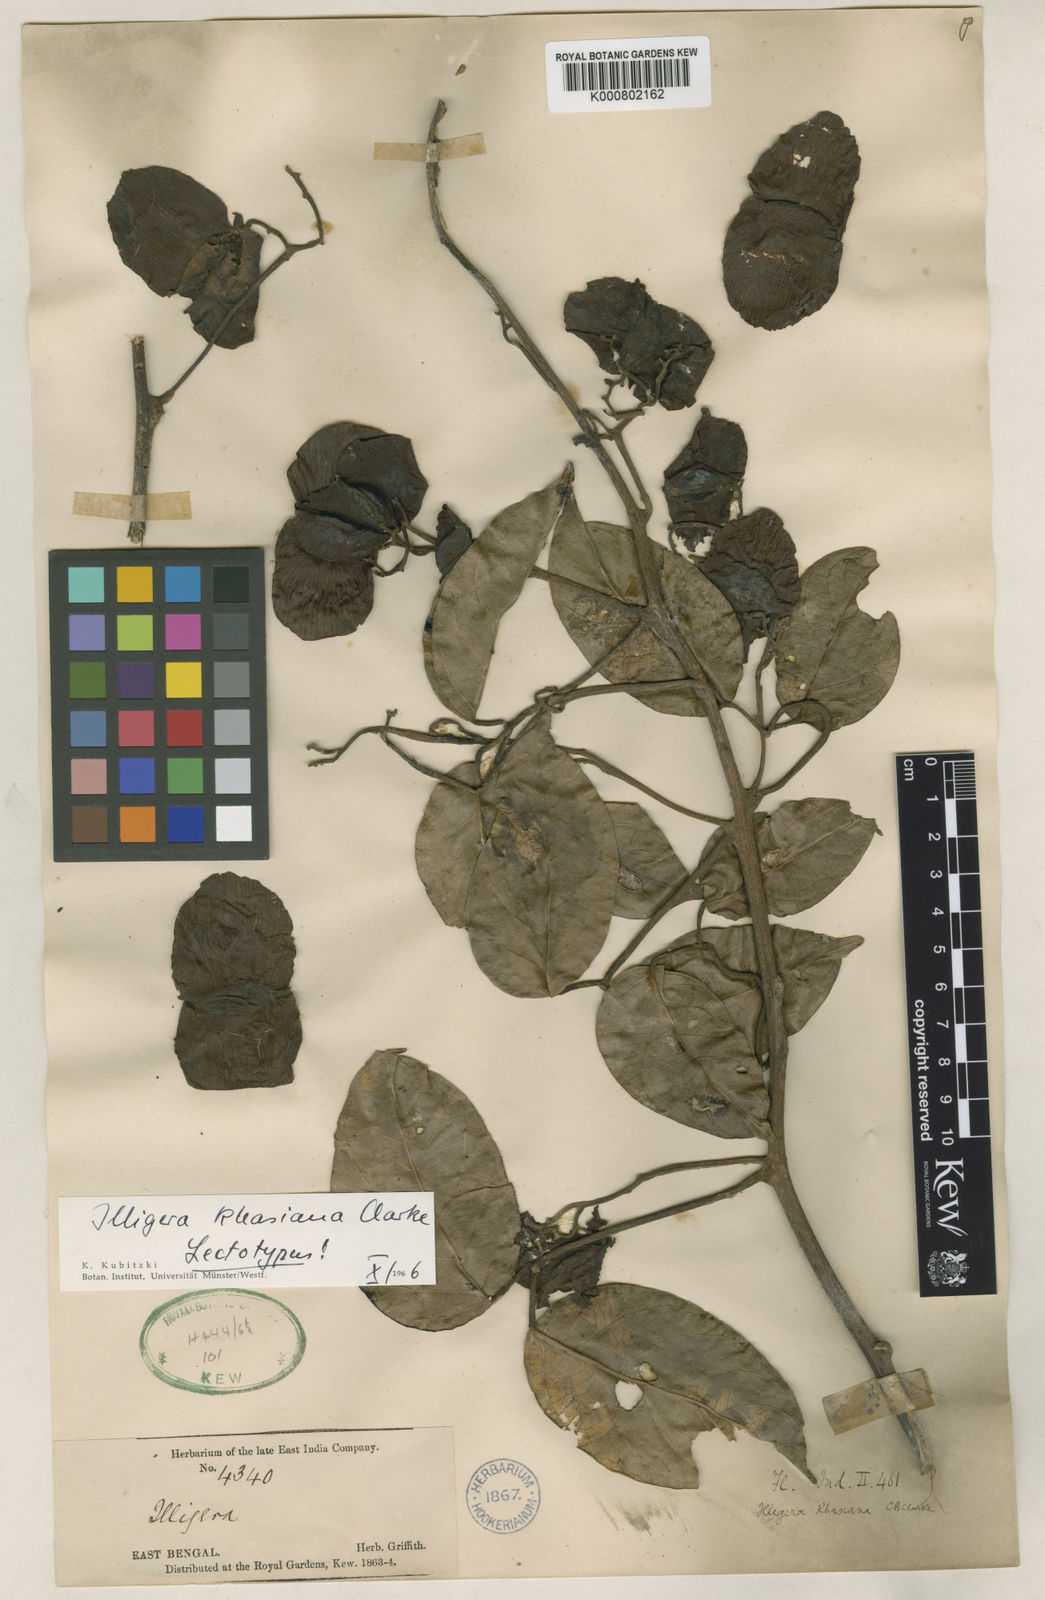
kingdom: Plantae
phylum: Tracheophyta
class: Magnoliopsida
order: Laurales
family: Hernandiaceae
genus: Illigera
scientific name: Illigera khasiana
